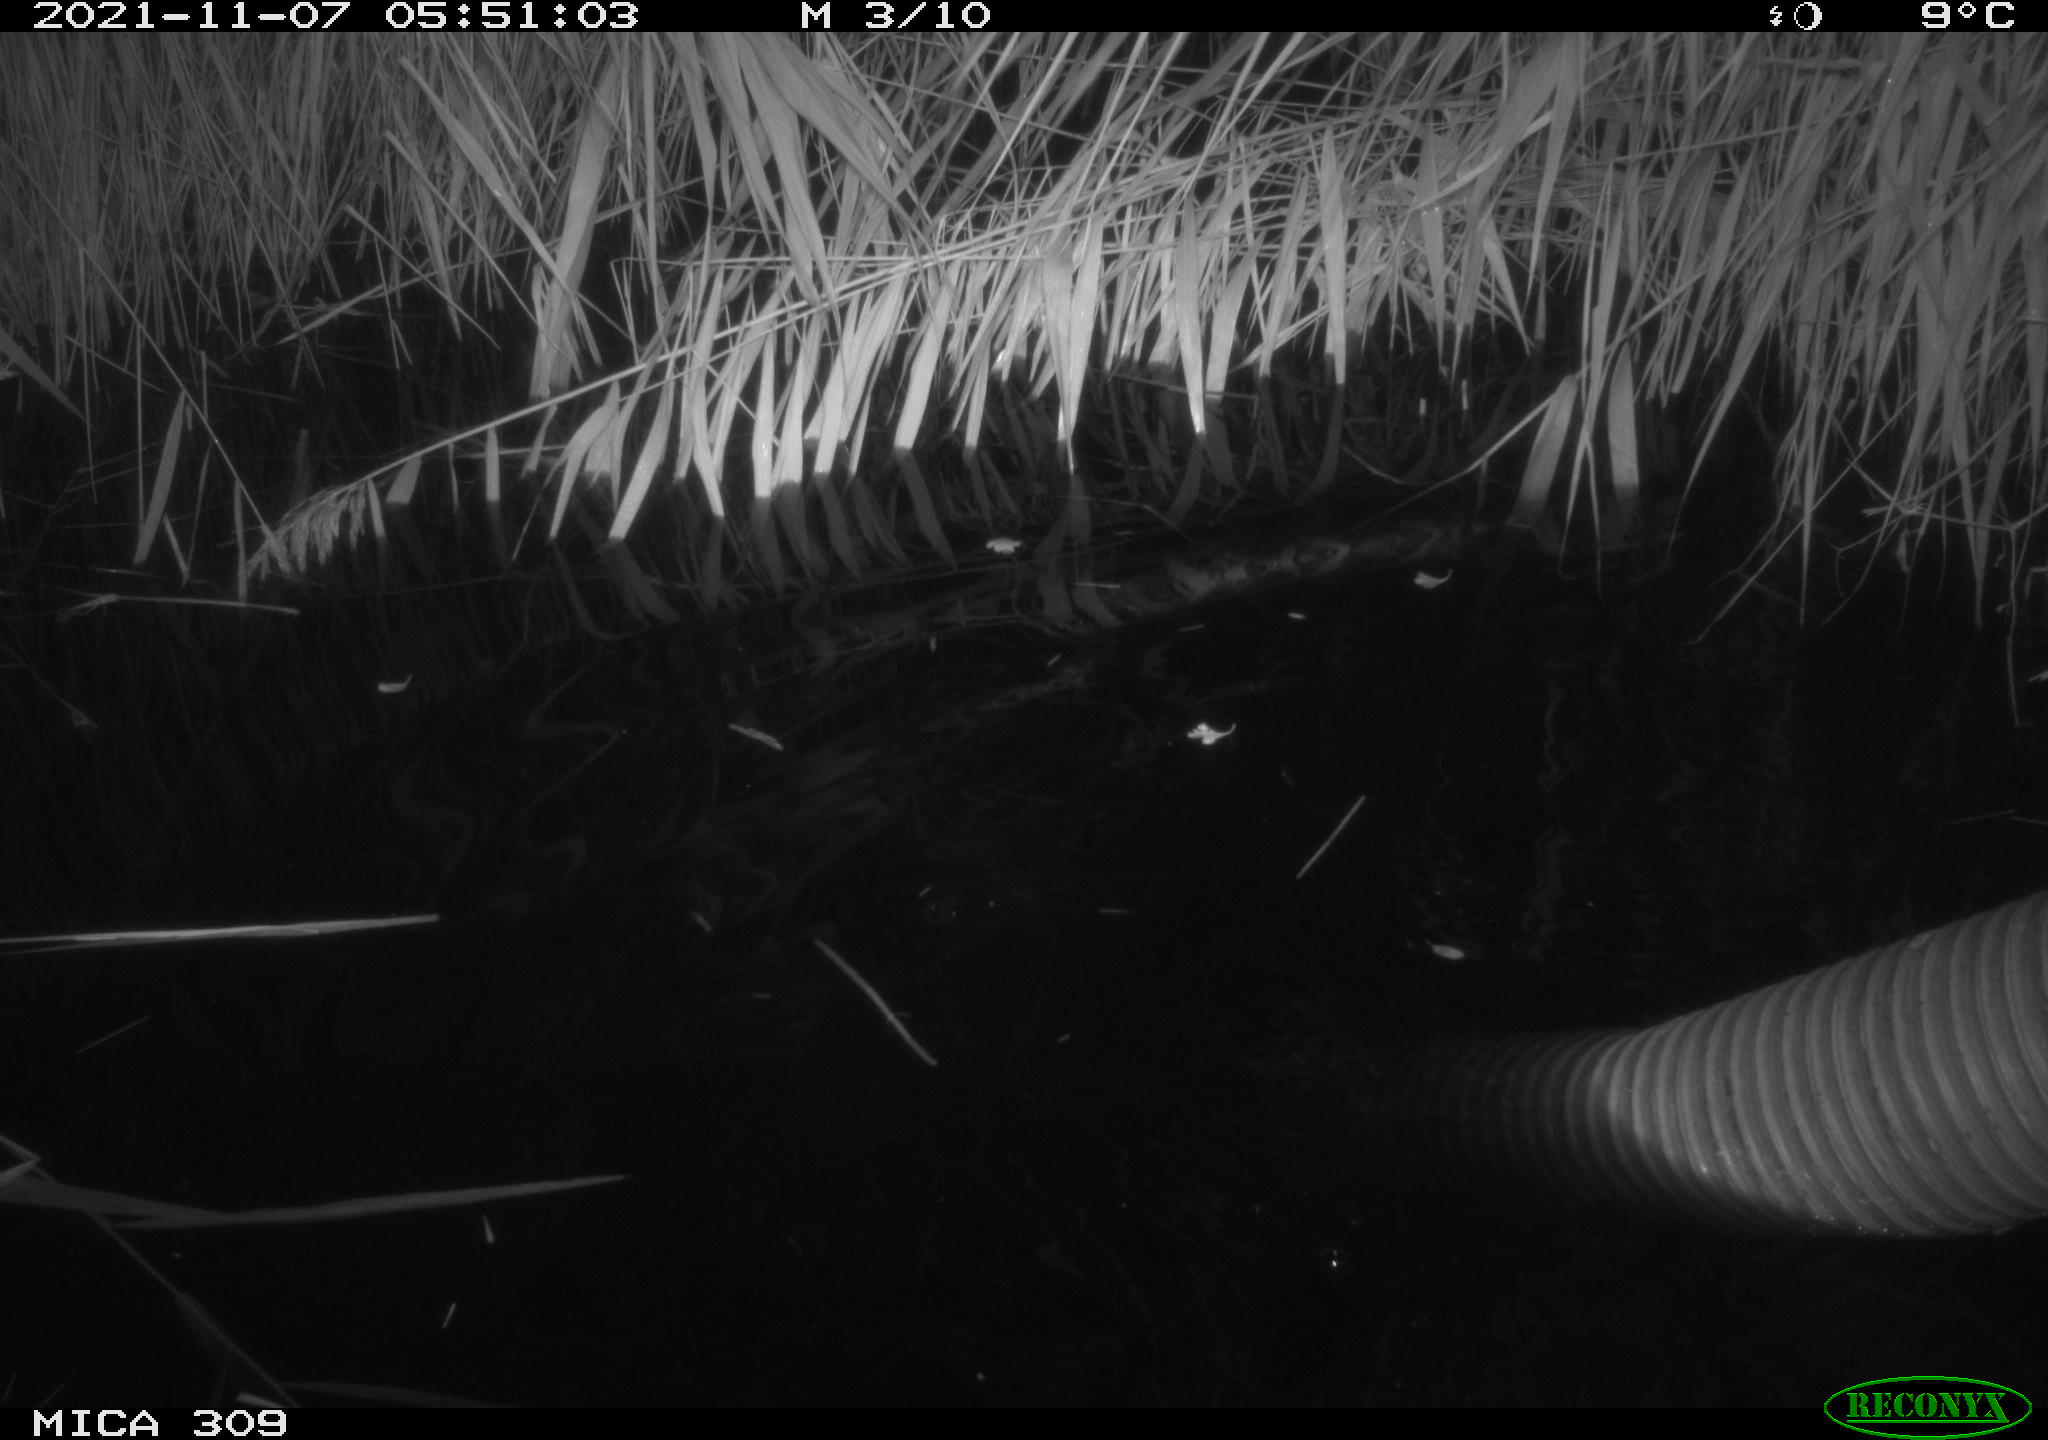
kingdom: Animalia
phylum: Chordata
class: Mammalia
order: Rodentia
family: Muridae
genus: Rattus
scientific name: Rattus norvegicus
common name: Brown rat
